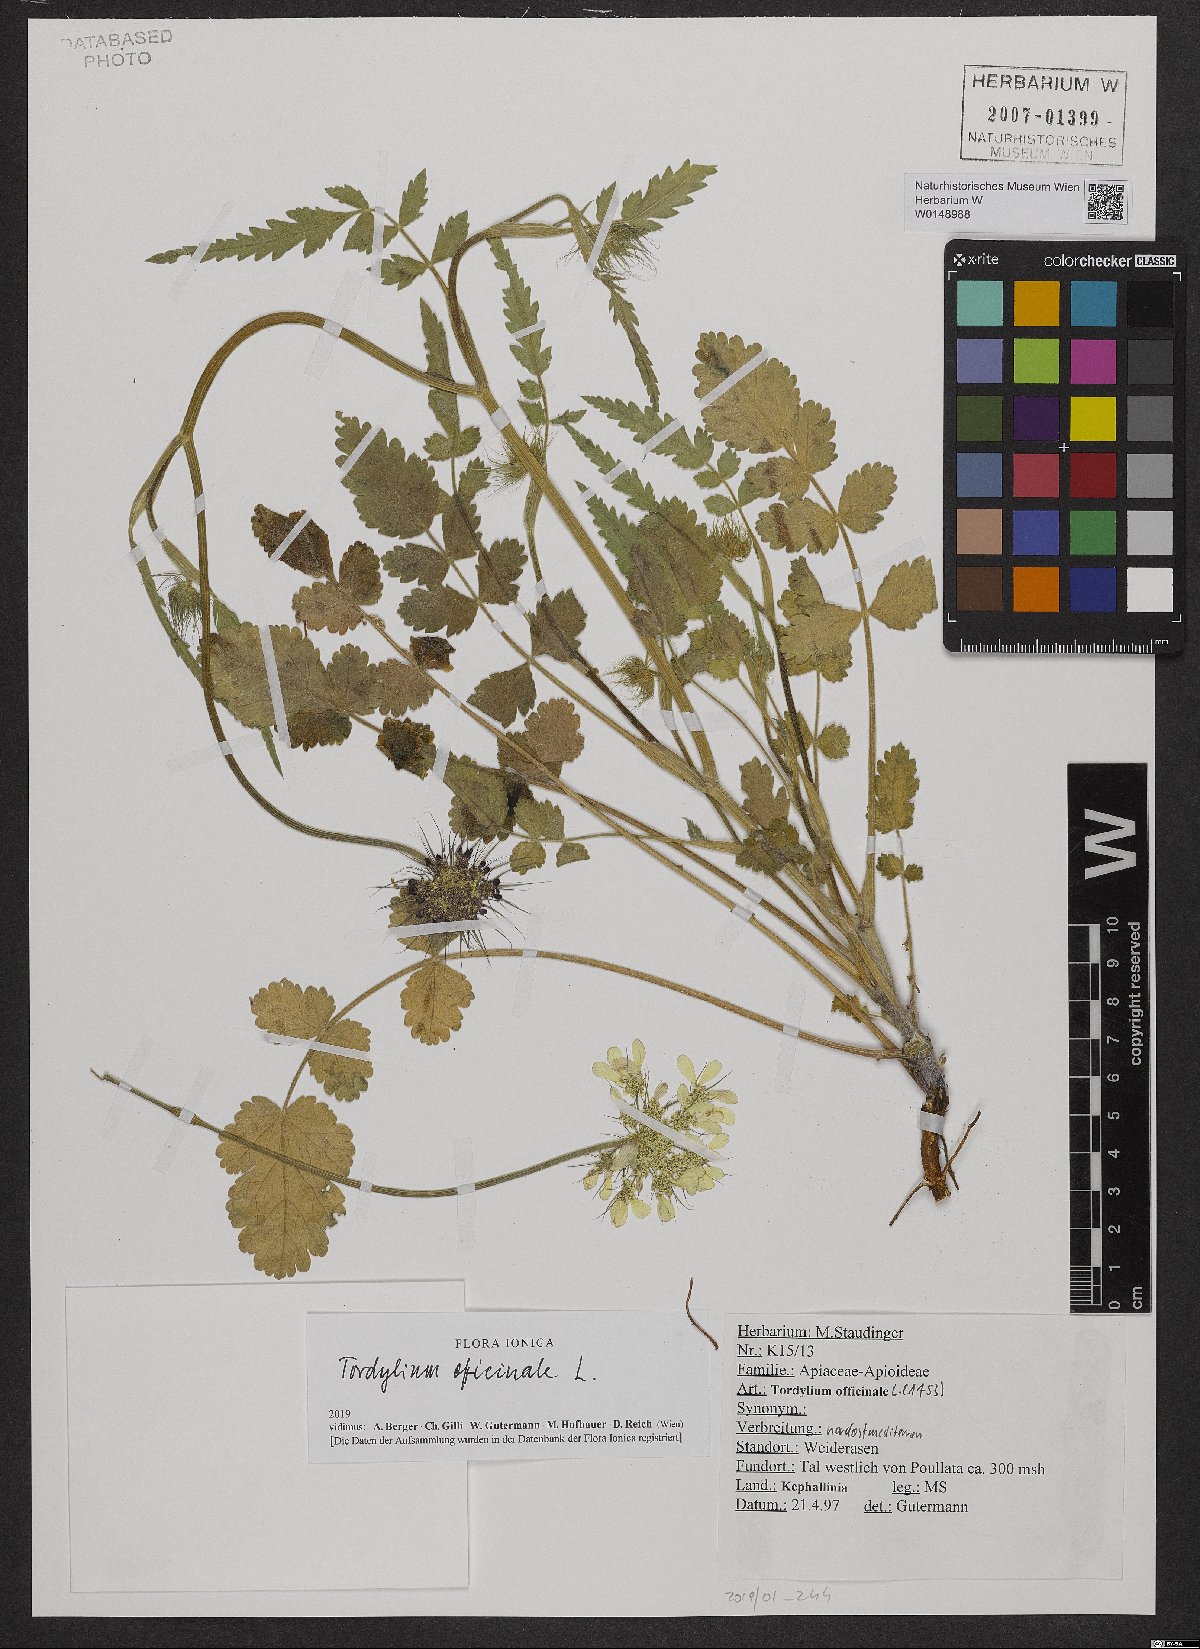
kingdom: Plantae
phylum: Tracheophyta
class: Magnoliopsida
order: Apiales
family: Apiaceae
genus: Tordylium
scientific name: Tordylium officinale
